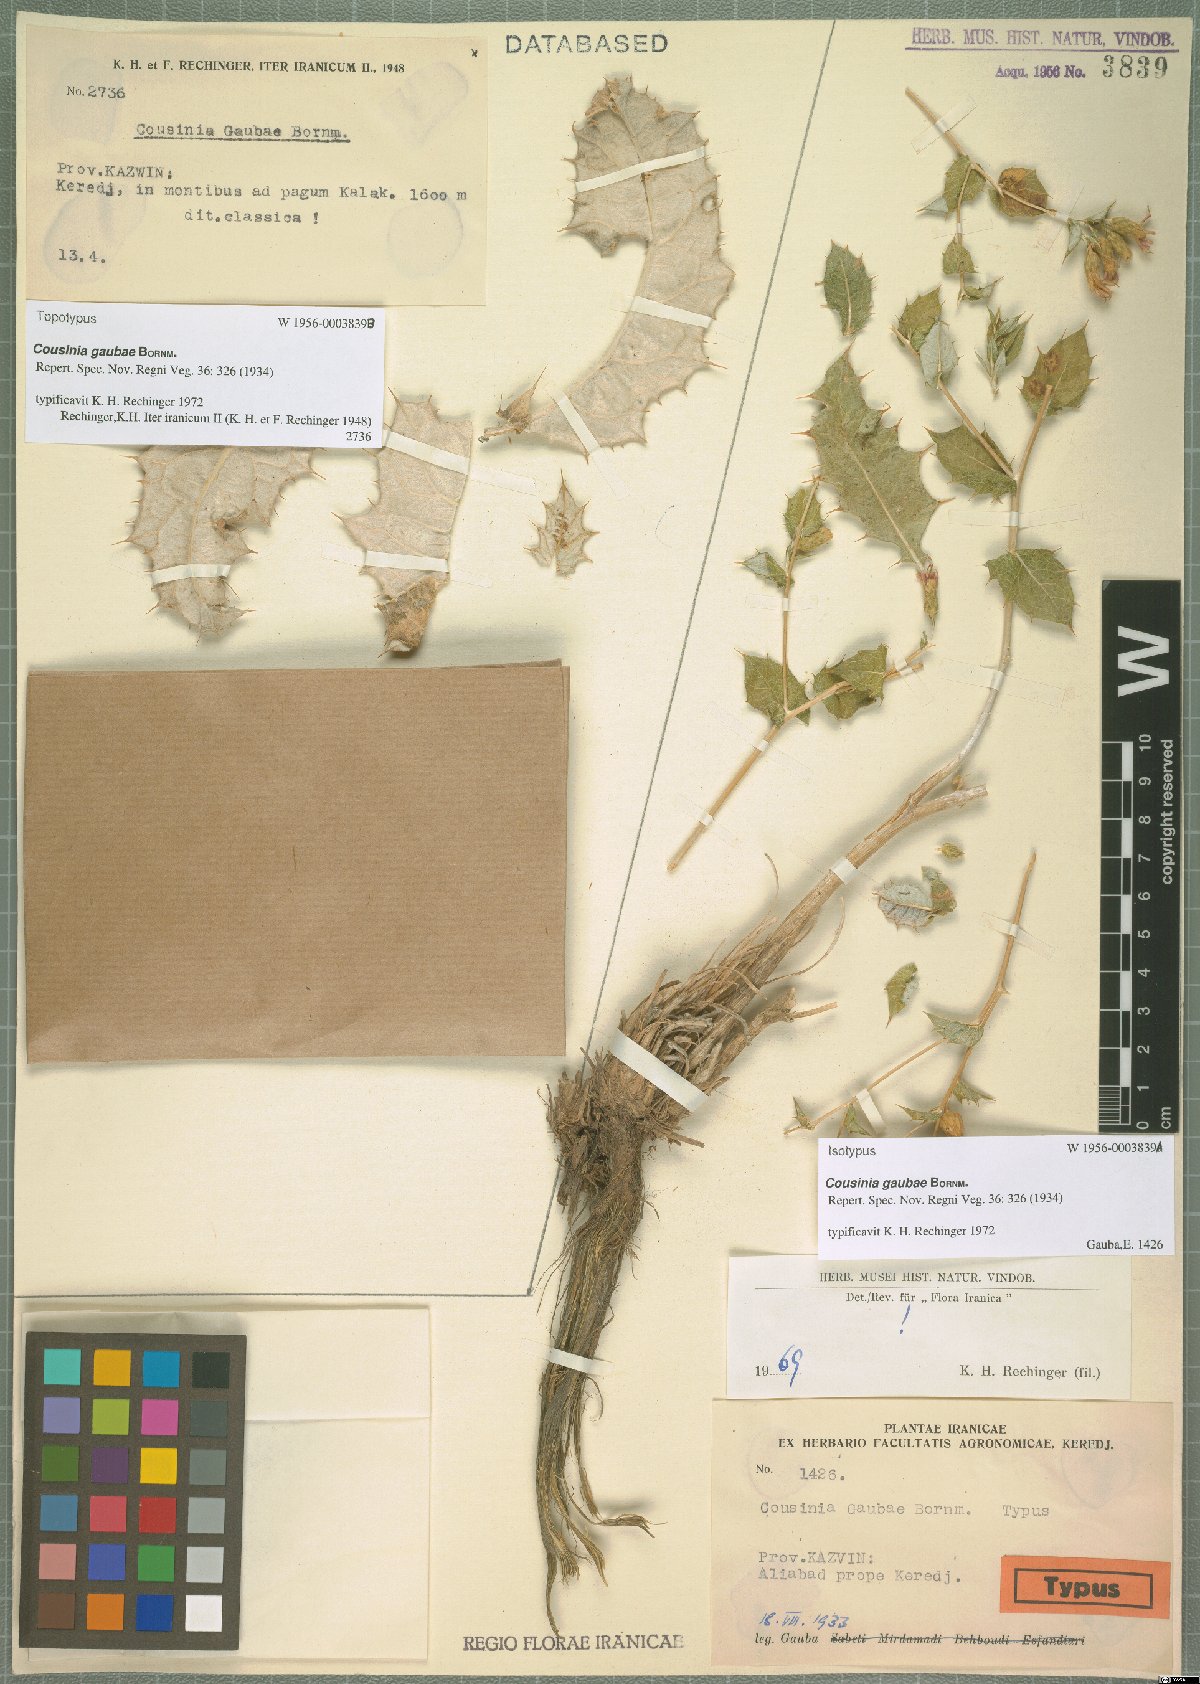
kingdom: Plantae
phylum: Tracheophyta
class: Magnoliopsida
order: Asterales
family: Asteraceae
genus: Cousinia
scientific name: Cousinia gaubae
